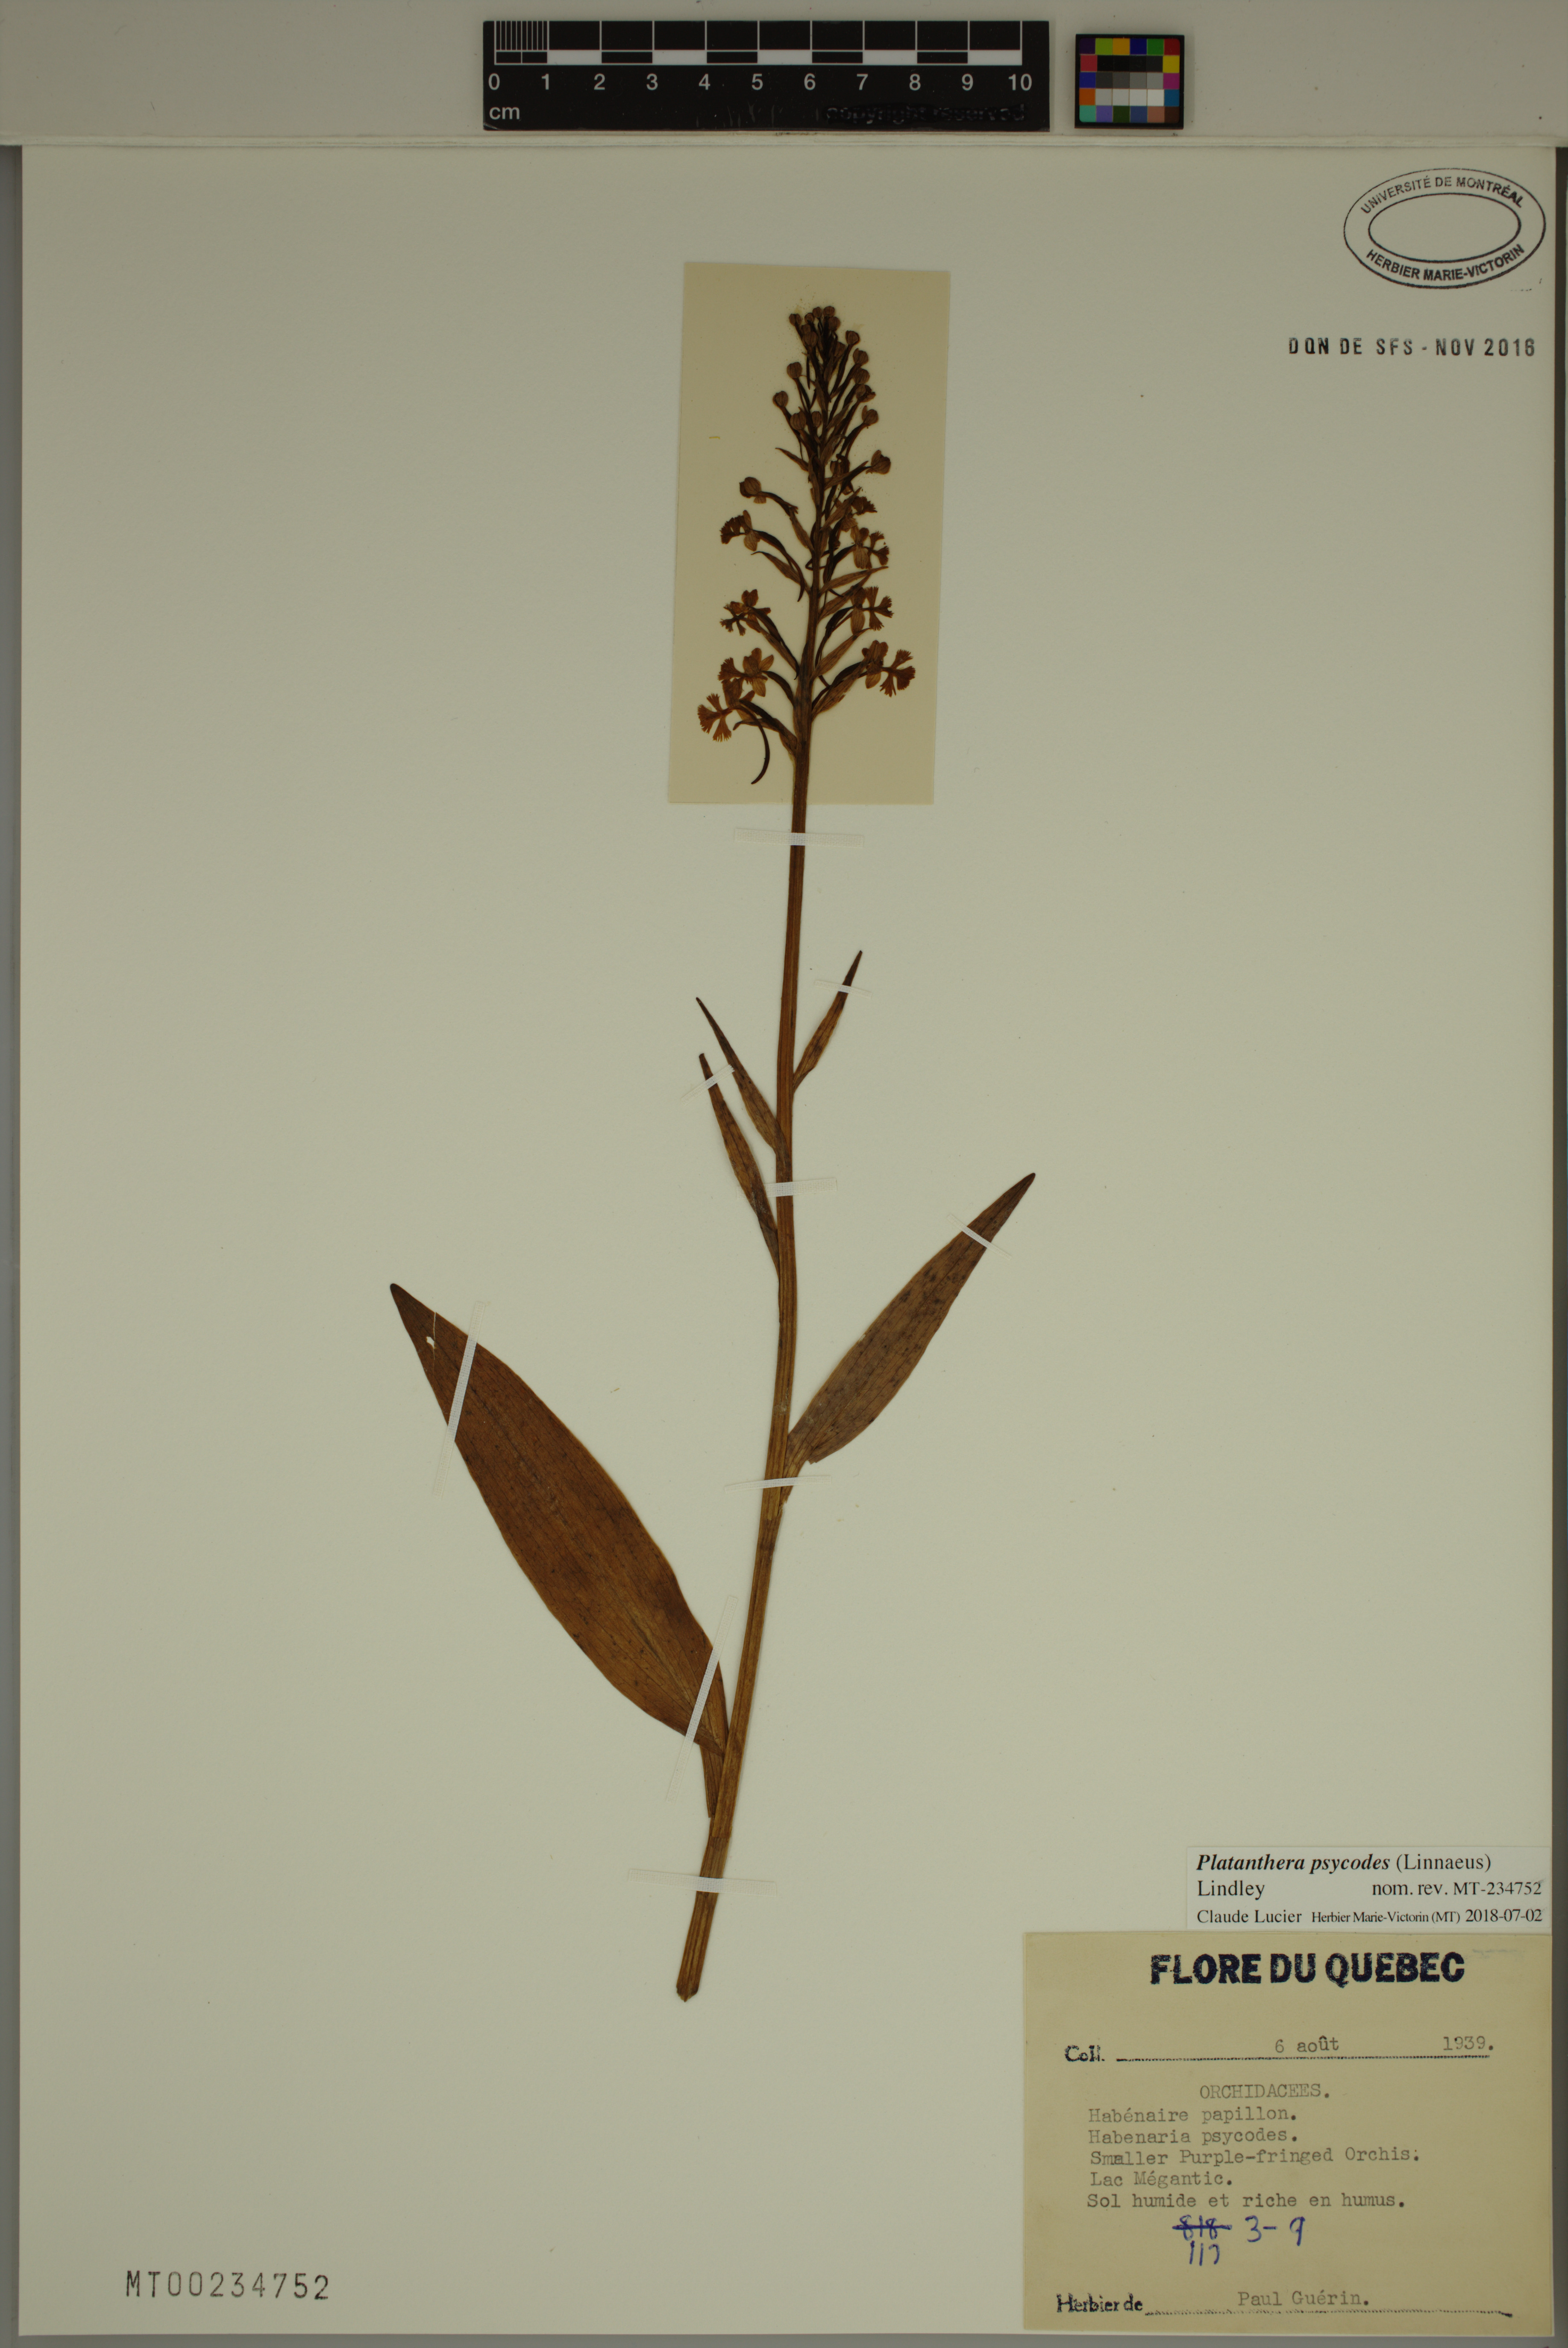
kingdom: Plantae
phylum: Tracheophyta
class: Liliopsida
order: Asparagales
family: Orchidaceae
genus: Platanthera
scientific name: Platanthera psycodes
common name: Lesser purple fringed orchid
